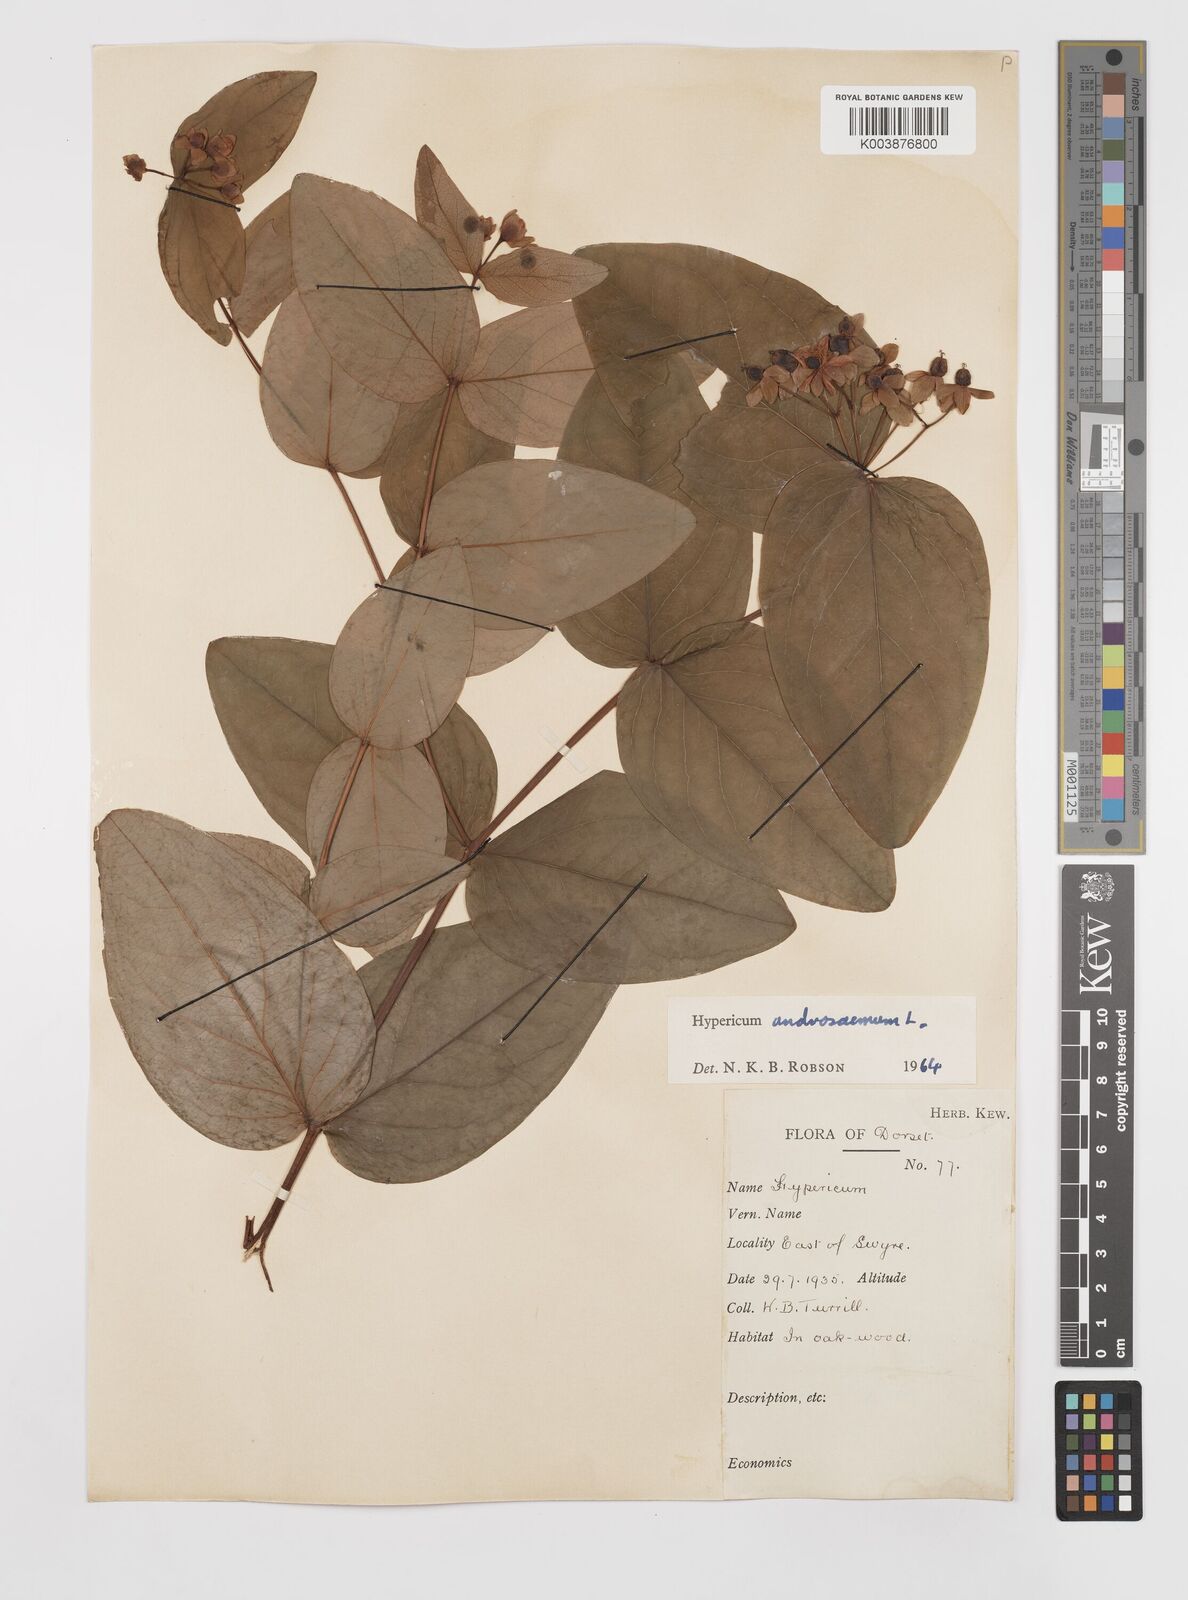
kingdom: Plantae
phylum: Tracheophyta
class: Magnoliopsida
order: Malpighiales
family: Hypericaceae
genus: Hypericum
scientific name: Hypericum androsaemum
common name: Sweet-amber
